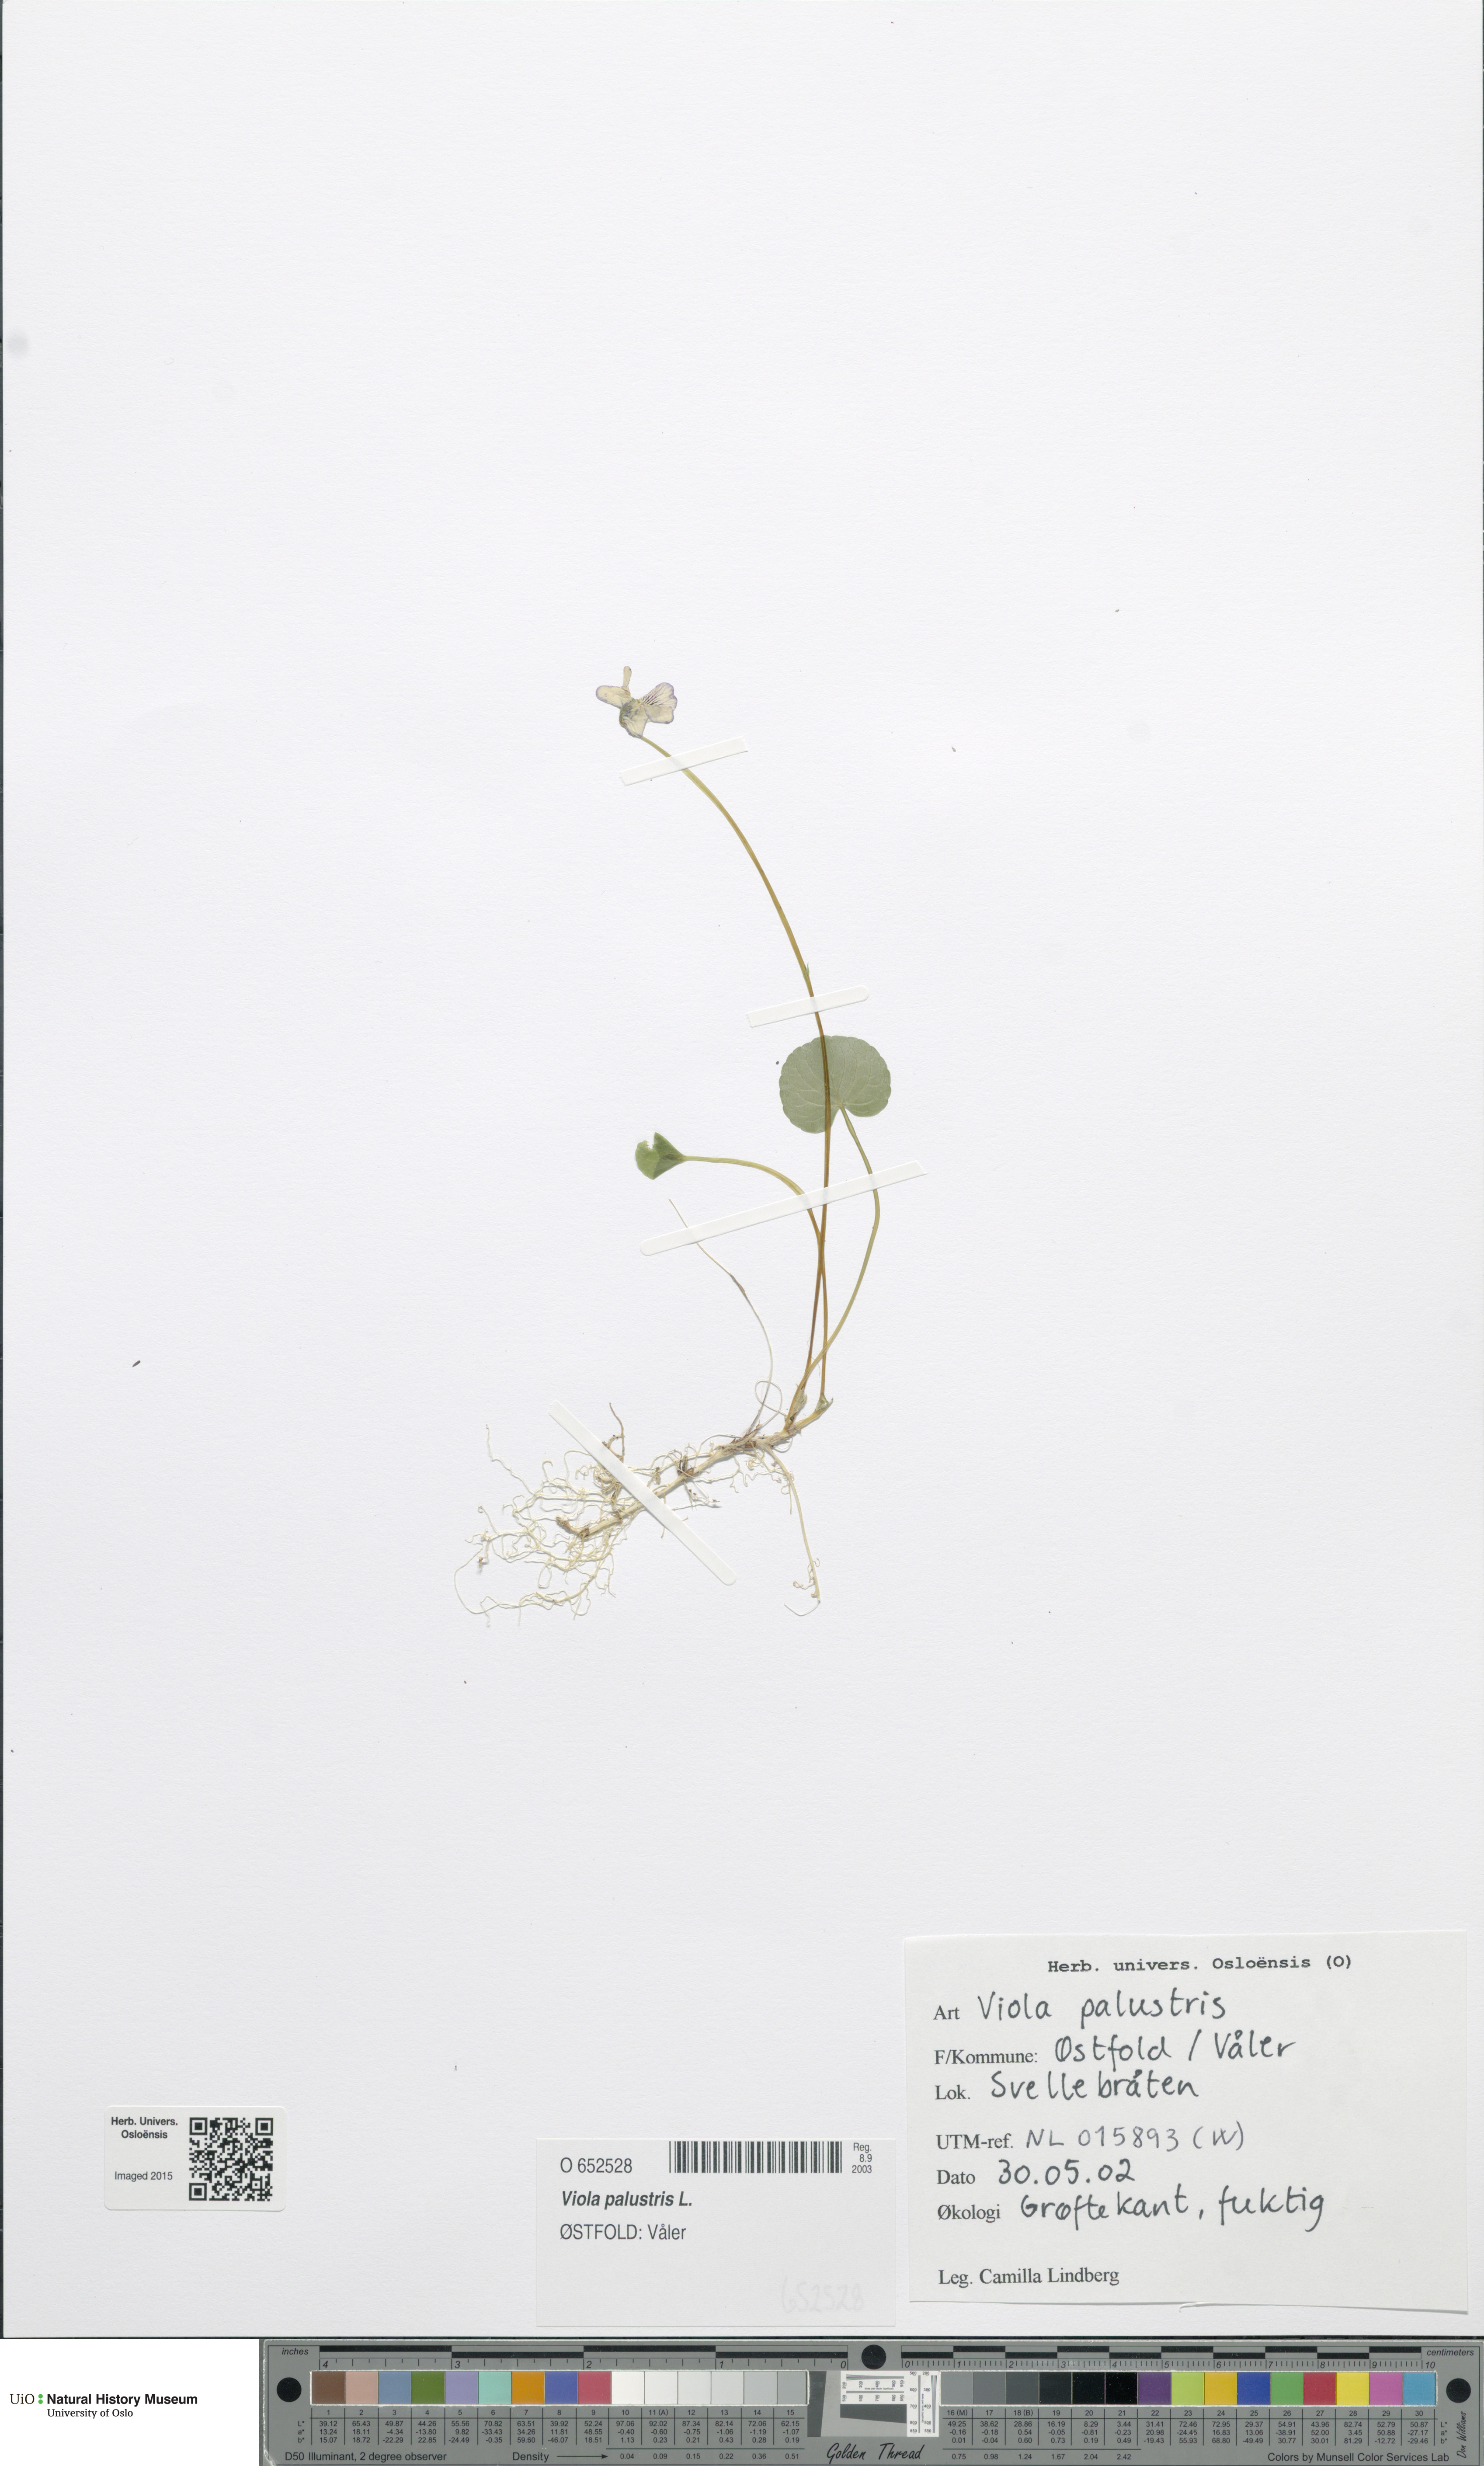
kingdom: Plantae
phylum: Tracheophyta
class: Magnoliopsida
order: Malpighiales
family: Violaceae
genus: Viola
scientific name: Viola palustris
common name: Marsh violet
